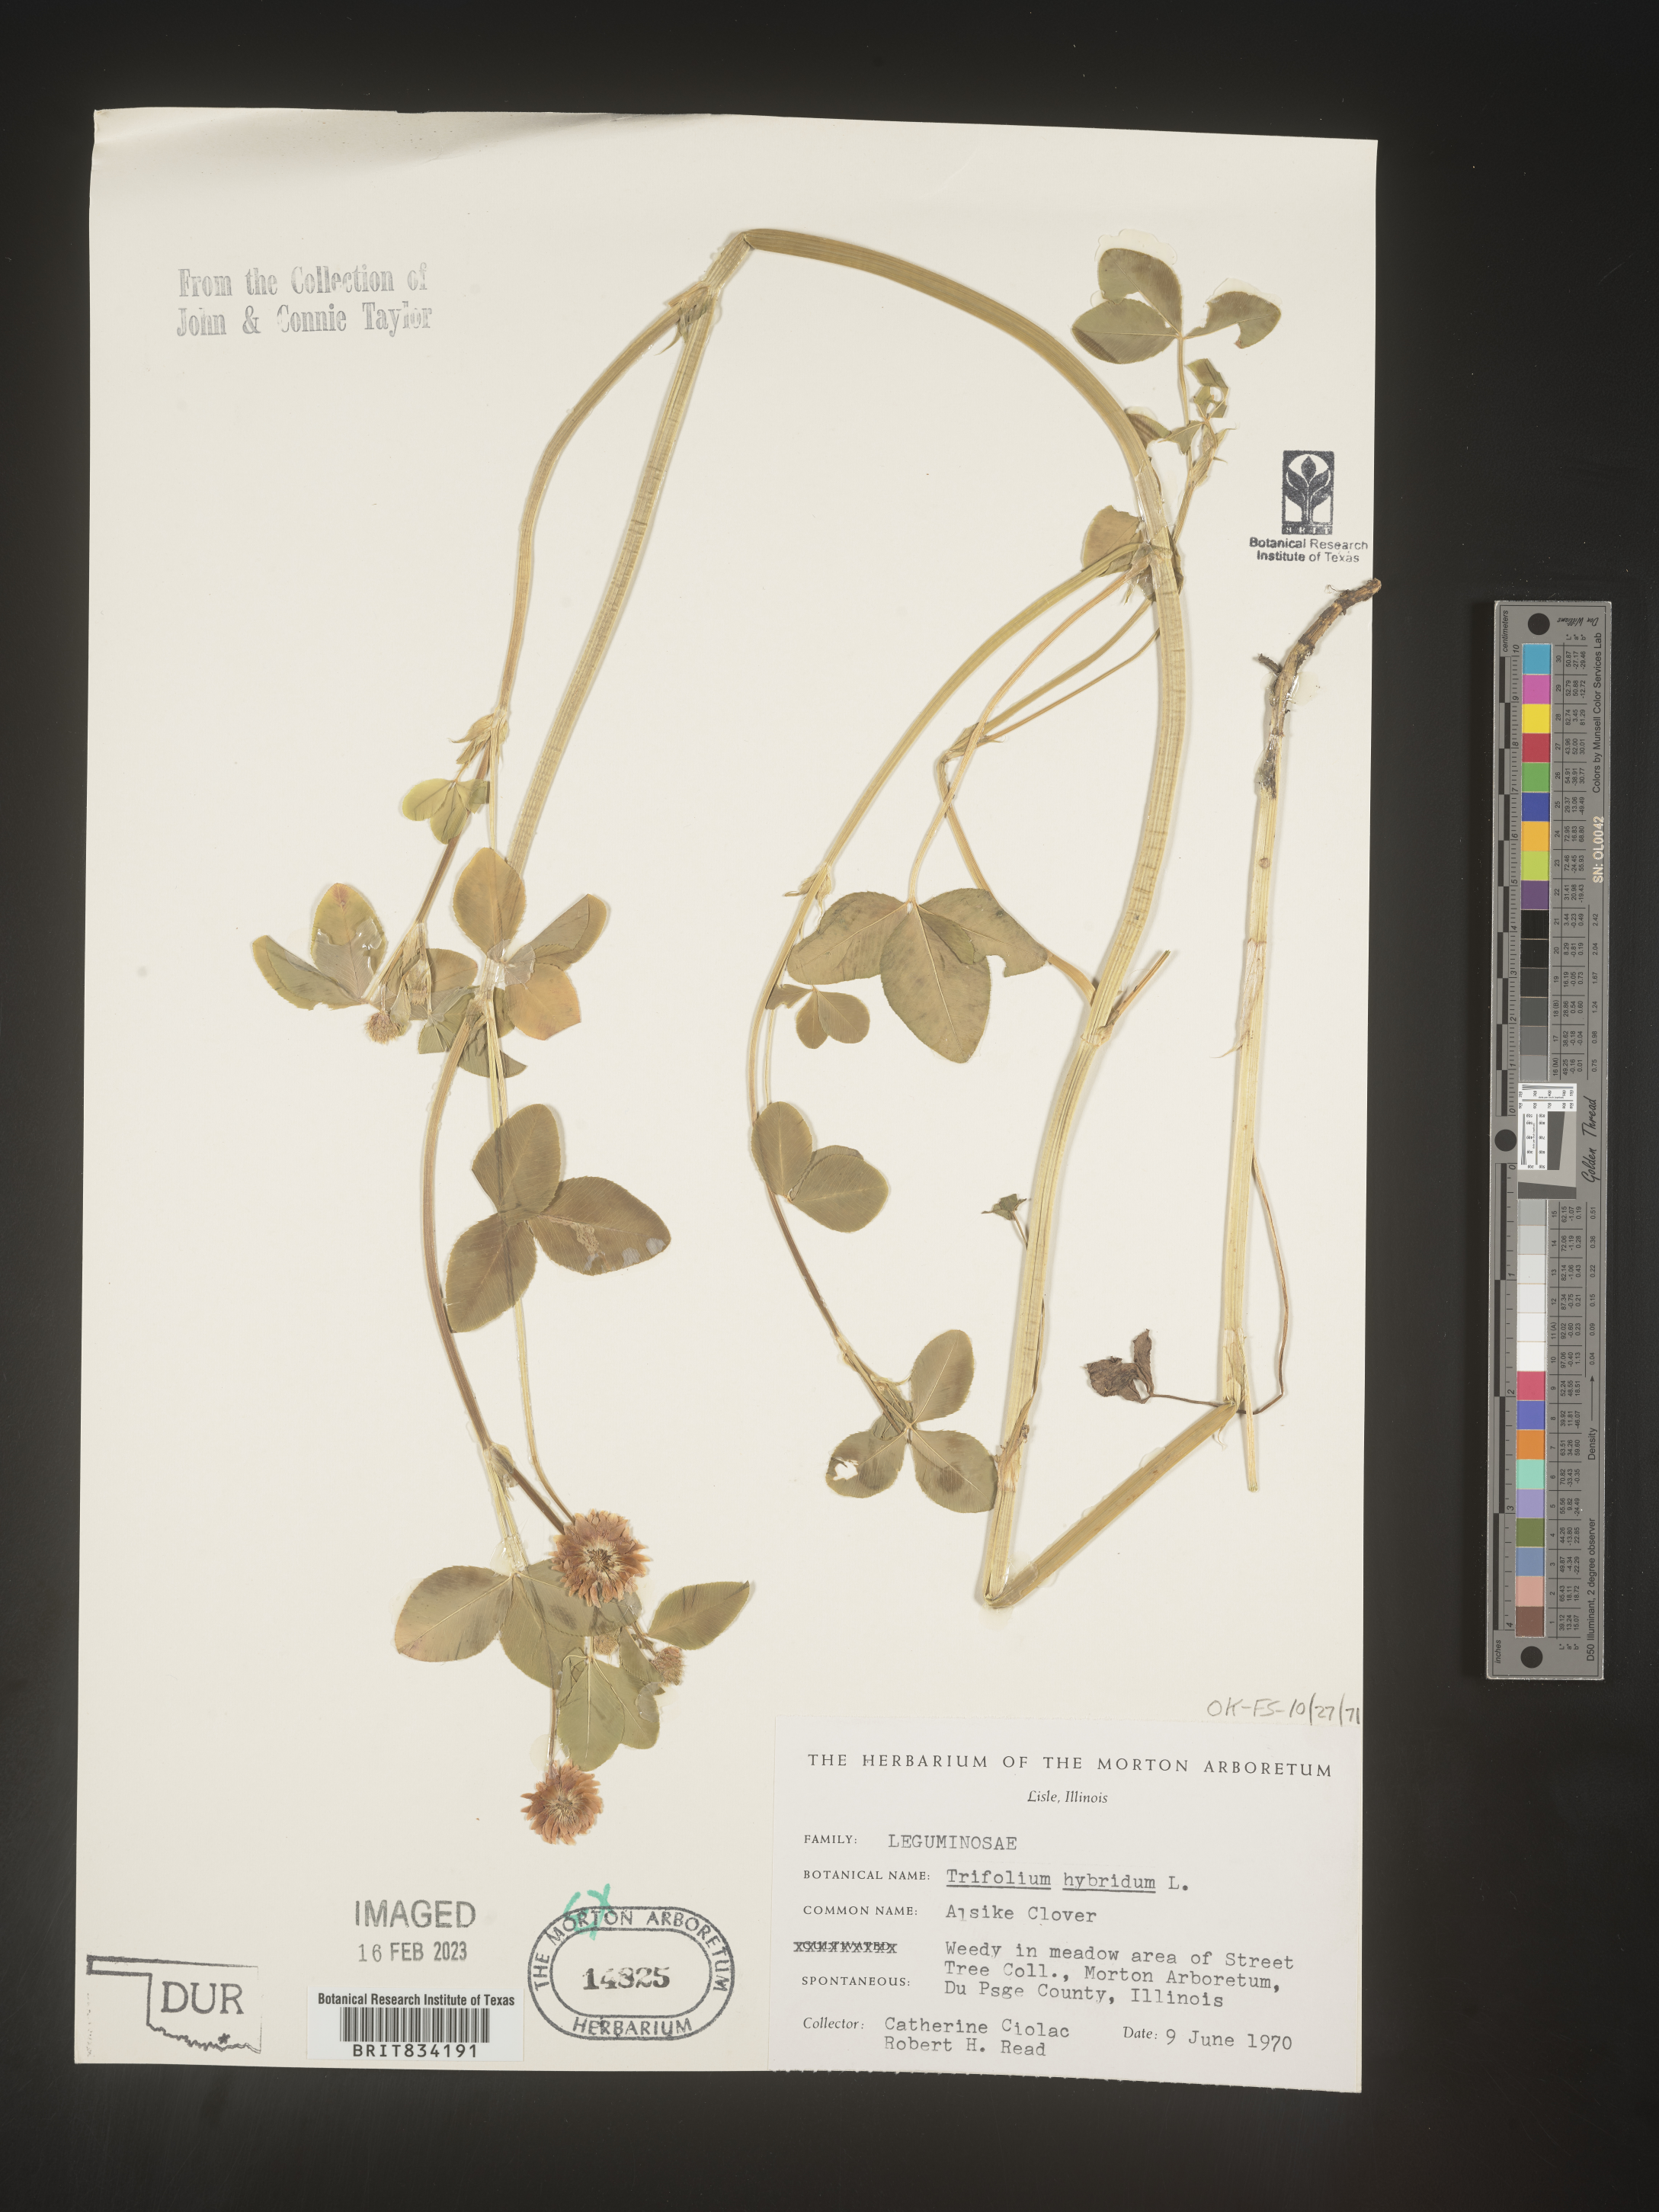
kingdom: Plantae
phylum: Tracheophyta
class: Magnoliopsida
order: Fabales
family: Fabaceae
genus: Trifolium
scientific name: Trifolium hybridum
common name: Alsike clover
